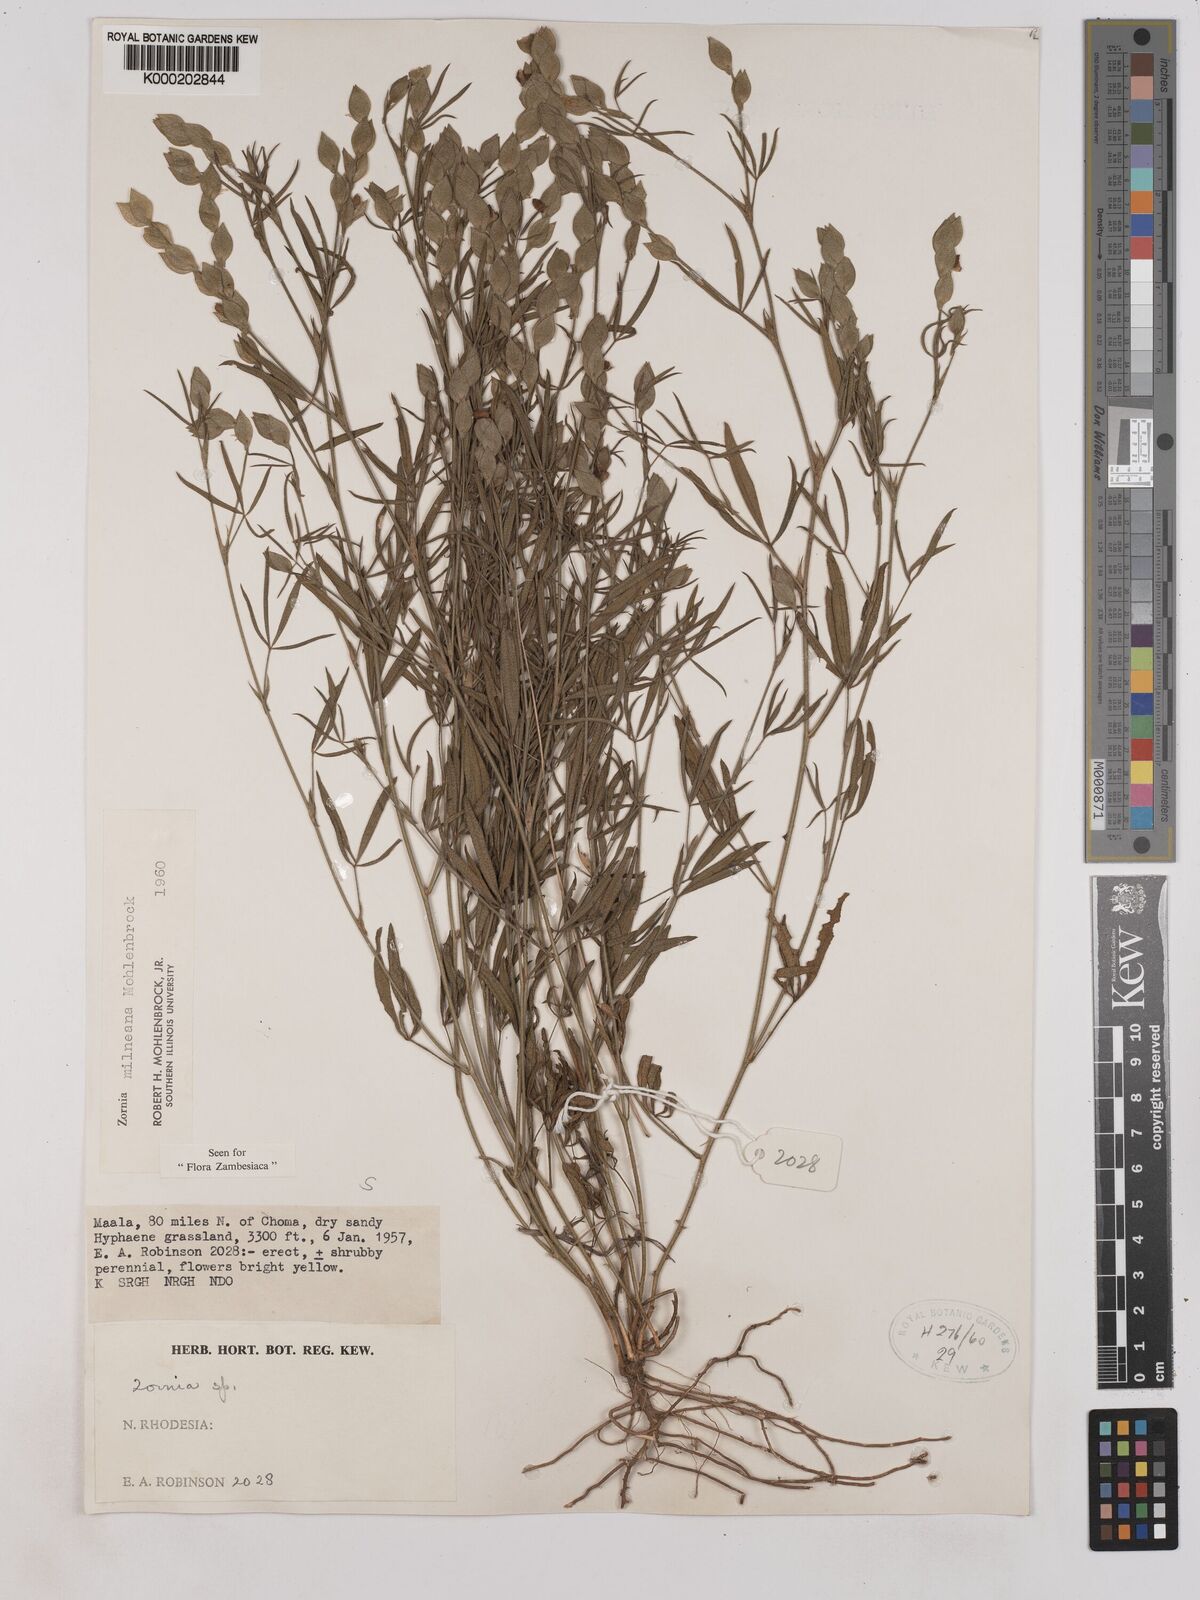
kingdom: Plantae
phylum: Tracheophyta
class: Magnoliopsida
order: Fabales
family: Fabaceae
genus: Zornia
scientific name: Zornia milneana
